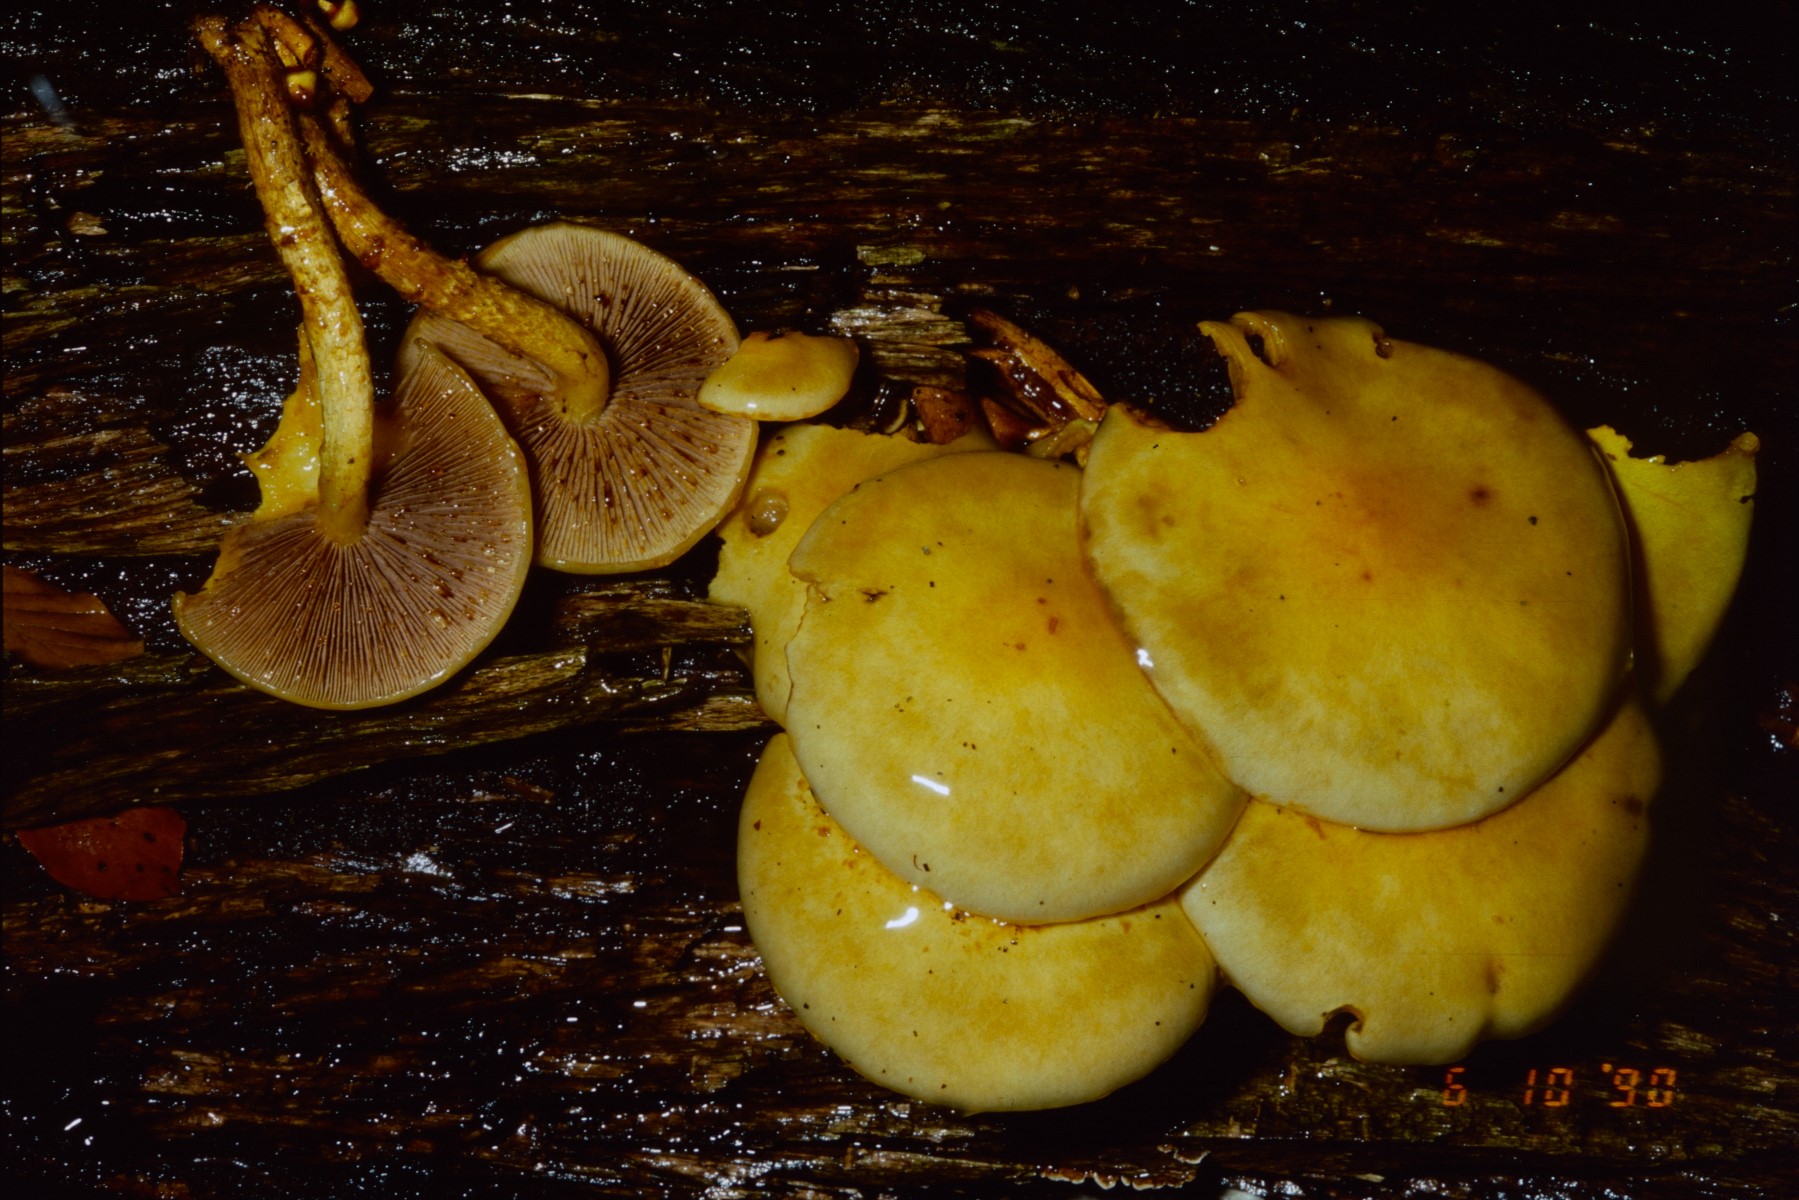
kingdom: Fungi
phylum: Basidiomycota
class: Agaricomycetes
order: Agaricales
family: Hymenogastraceae
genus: Flammula
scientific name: Flammula alnicola
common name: elle-skælhat
